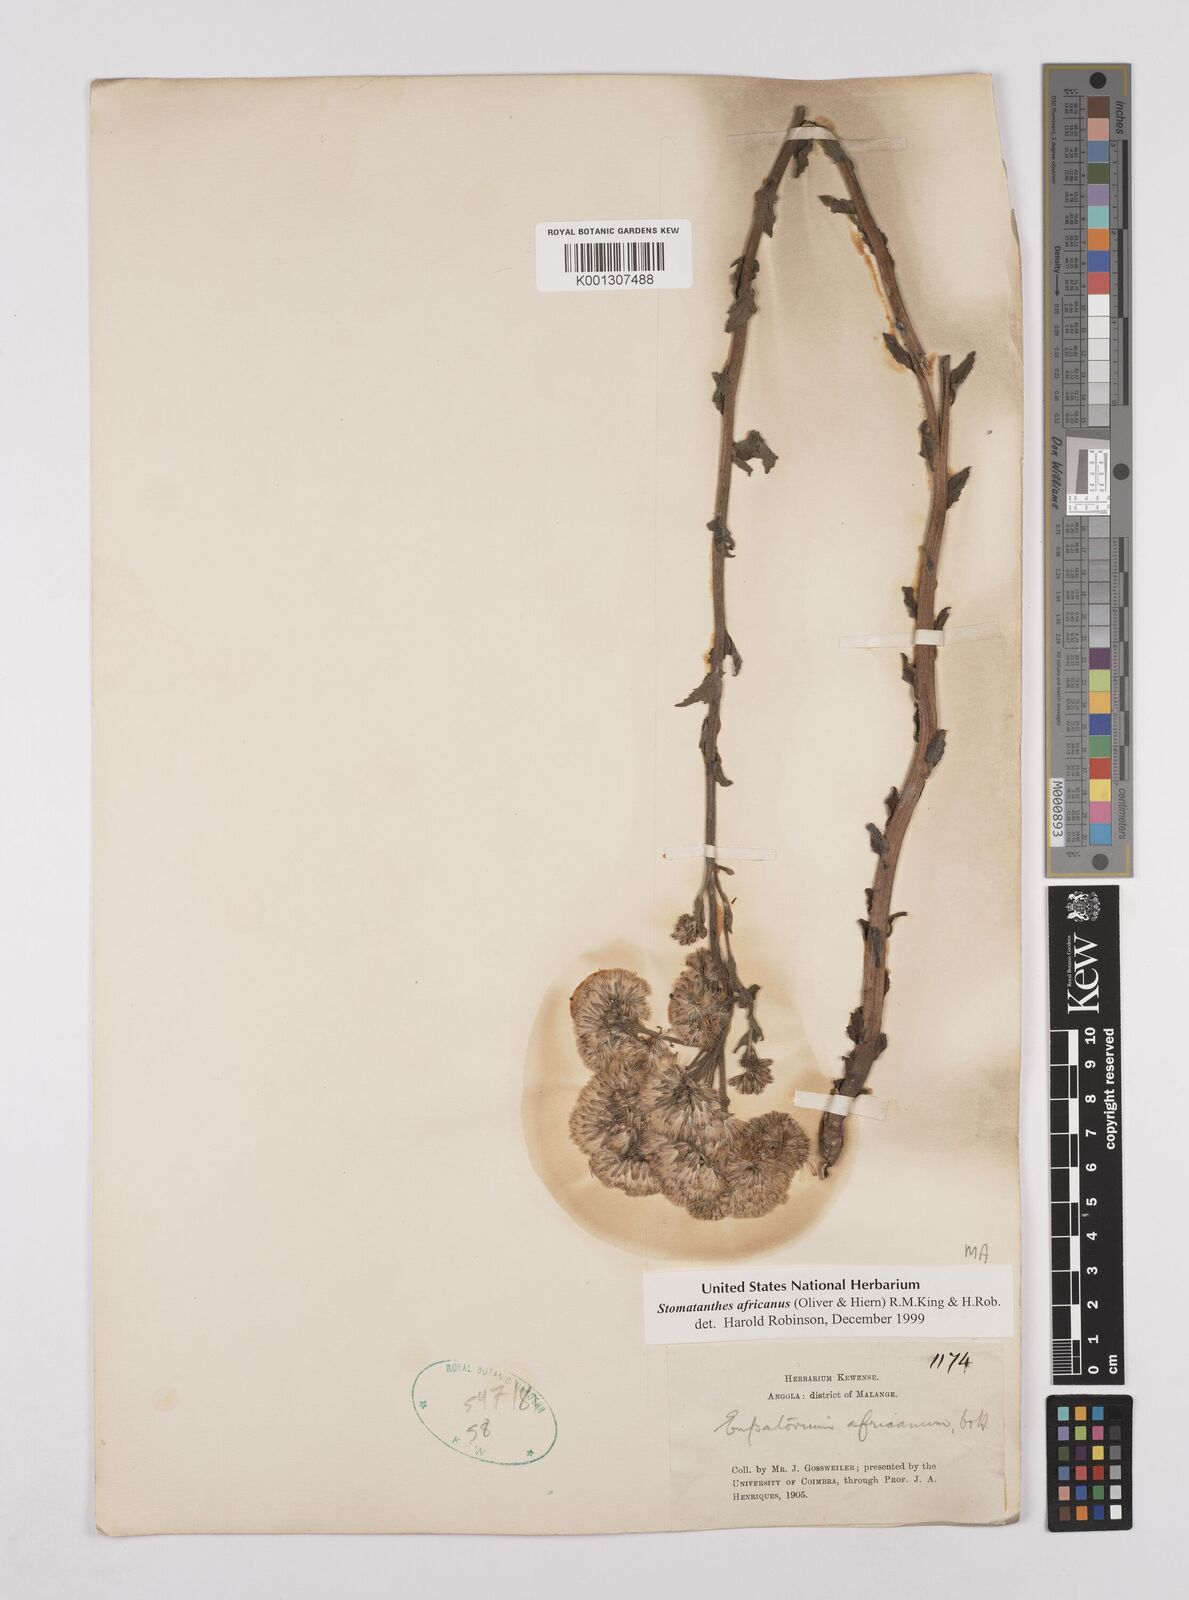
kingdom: Plantae
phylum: Tracheophyta
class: Magnoliopsida
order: Asterales
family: Asteraceae
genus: Stomatanthes
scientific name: Stomatanthes africanus
